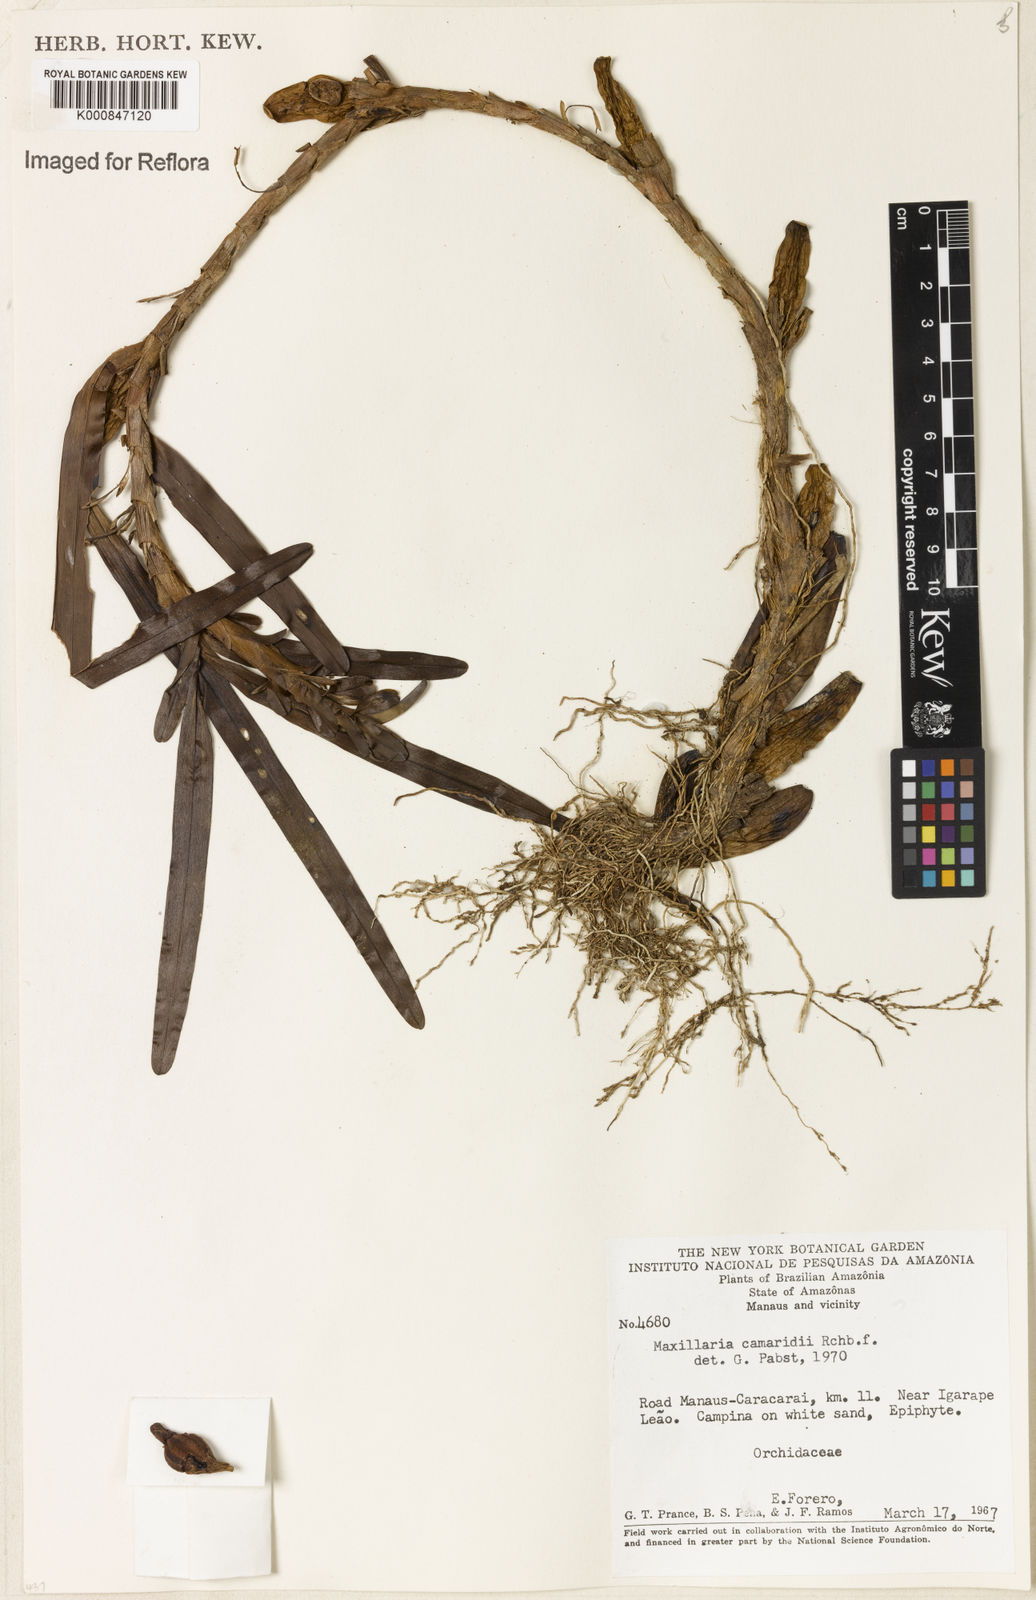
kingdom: Plantae
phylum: Tracheophyta
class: Liliopsida
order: Asparagales
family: Orchidaceae
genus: Maxillaria
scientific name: Maxillaria lutescens
